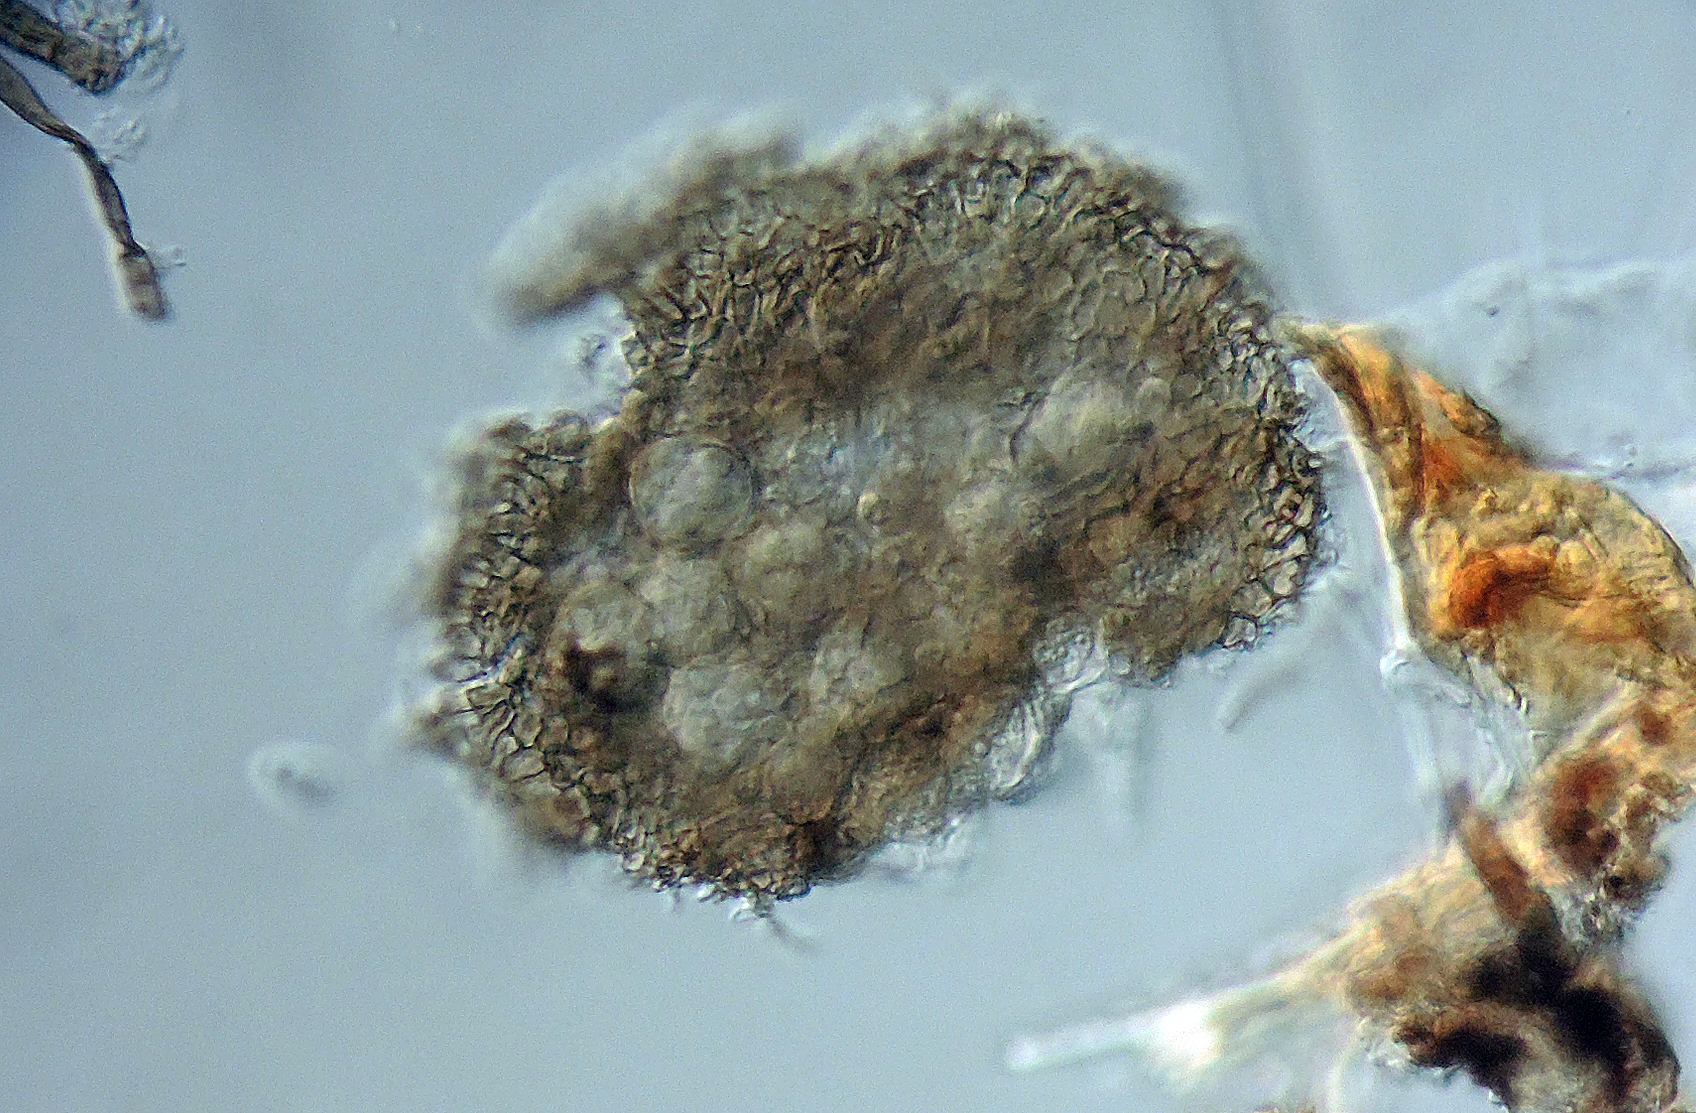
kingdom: Fungi
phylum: Ascomycota
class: Dothideomycetes
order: Microthyriales
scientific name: Microthyriales
